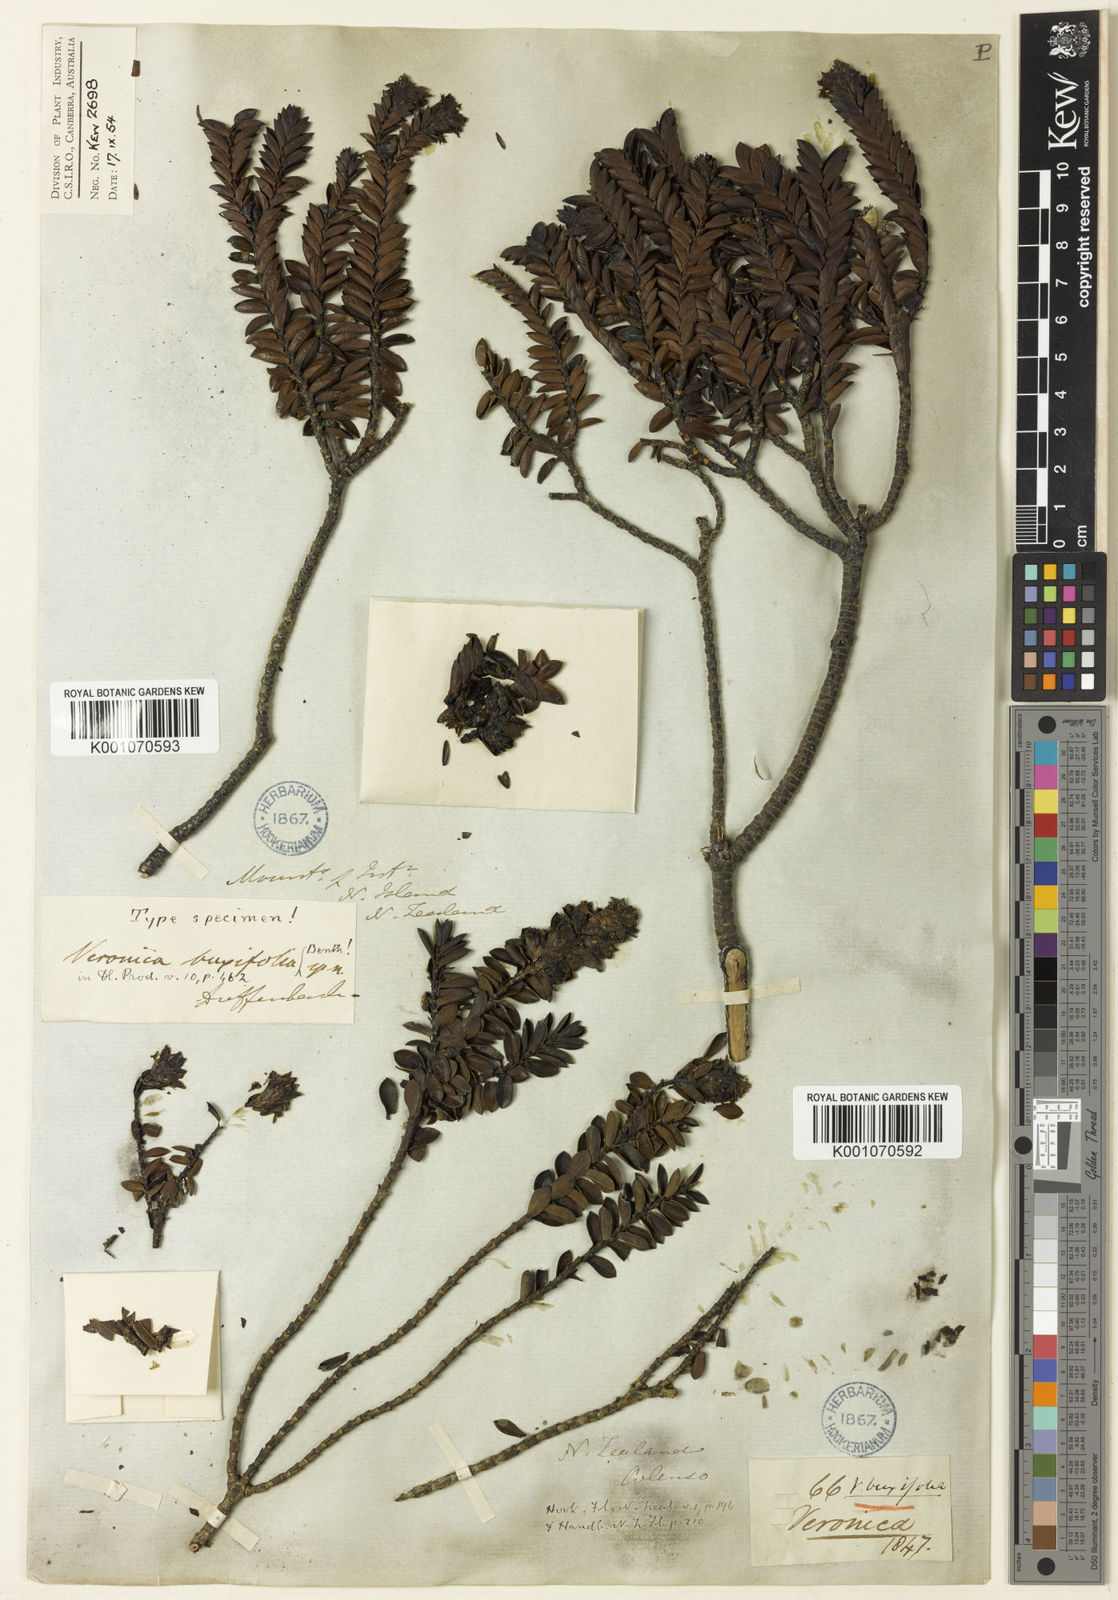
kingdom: Plantae
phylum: Tracheophyta
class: Magnoliopsida
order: Lamiales
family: Plantaginaceae
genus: Veronica
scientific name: Veronica odora
